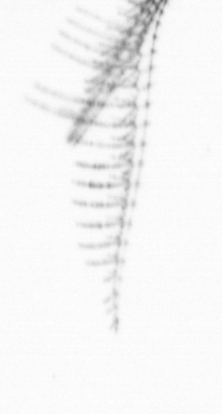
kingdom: Chromista
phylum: Ochrophyta
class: Bacillariophyceae
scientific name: Bacillariophyceae
